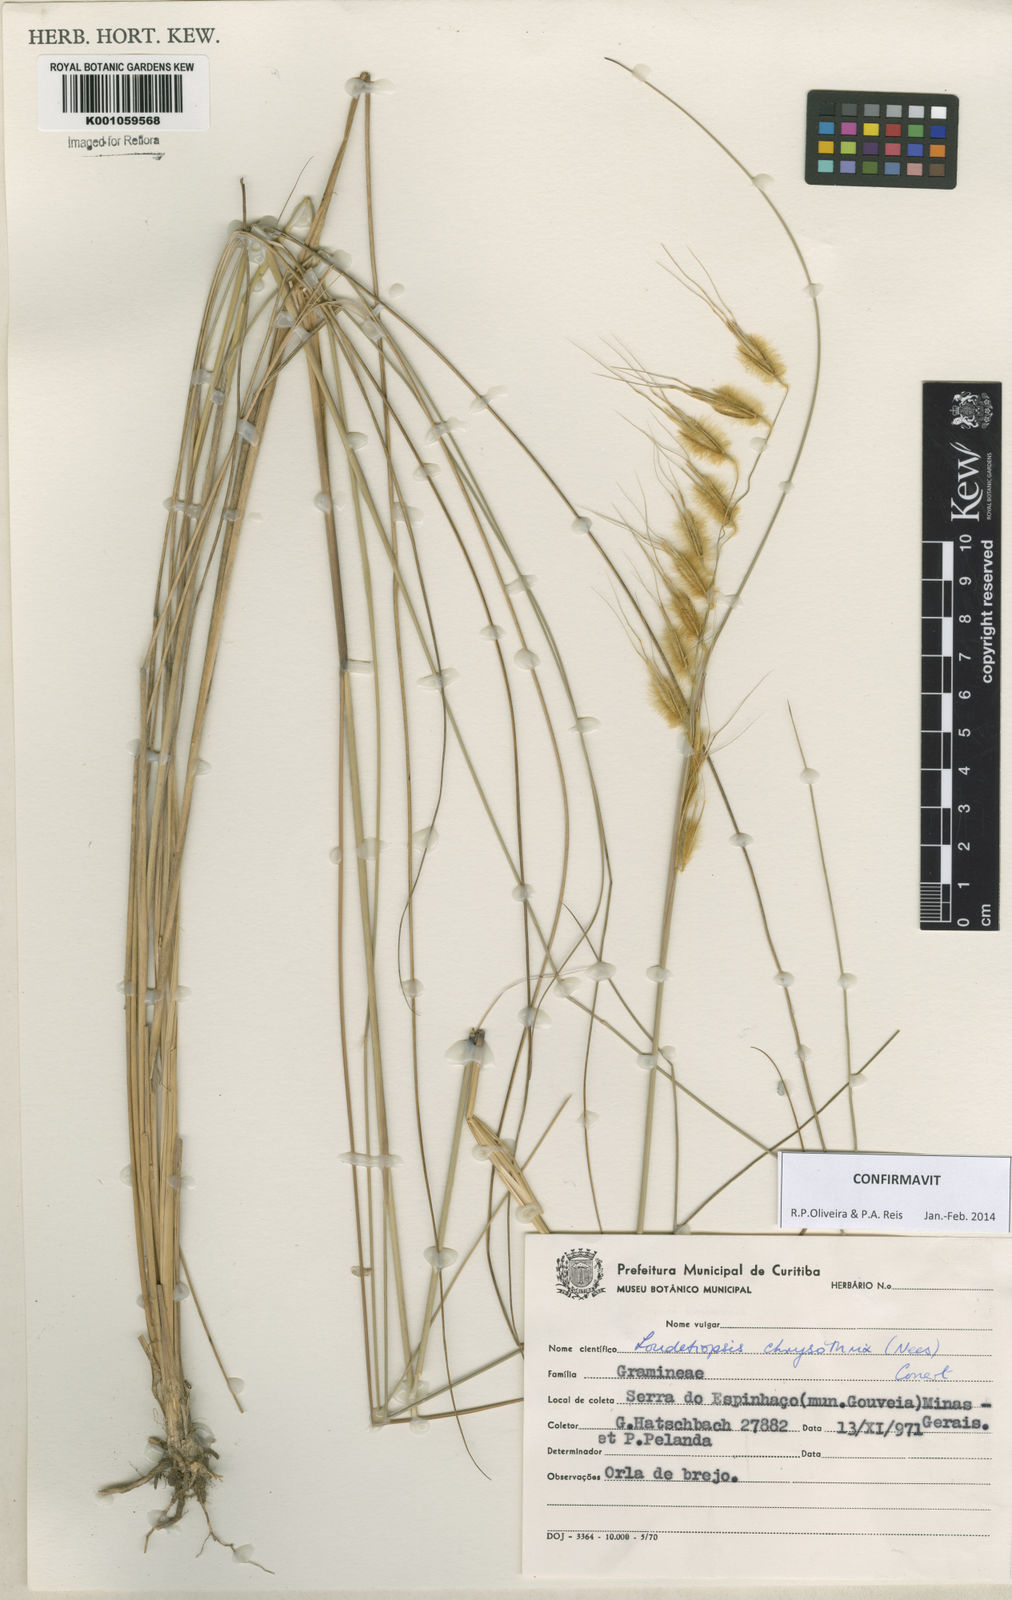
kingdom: Plantae
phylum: Tracheophyta
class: Liliopsida
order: Poales
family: Poaceae
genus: Loudetiopsis
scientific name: Loudetiopsis chrysothrix
